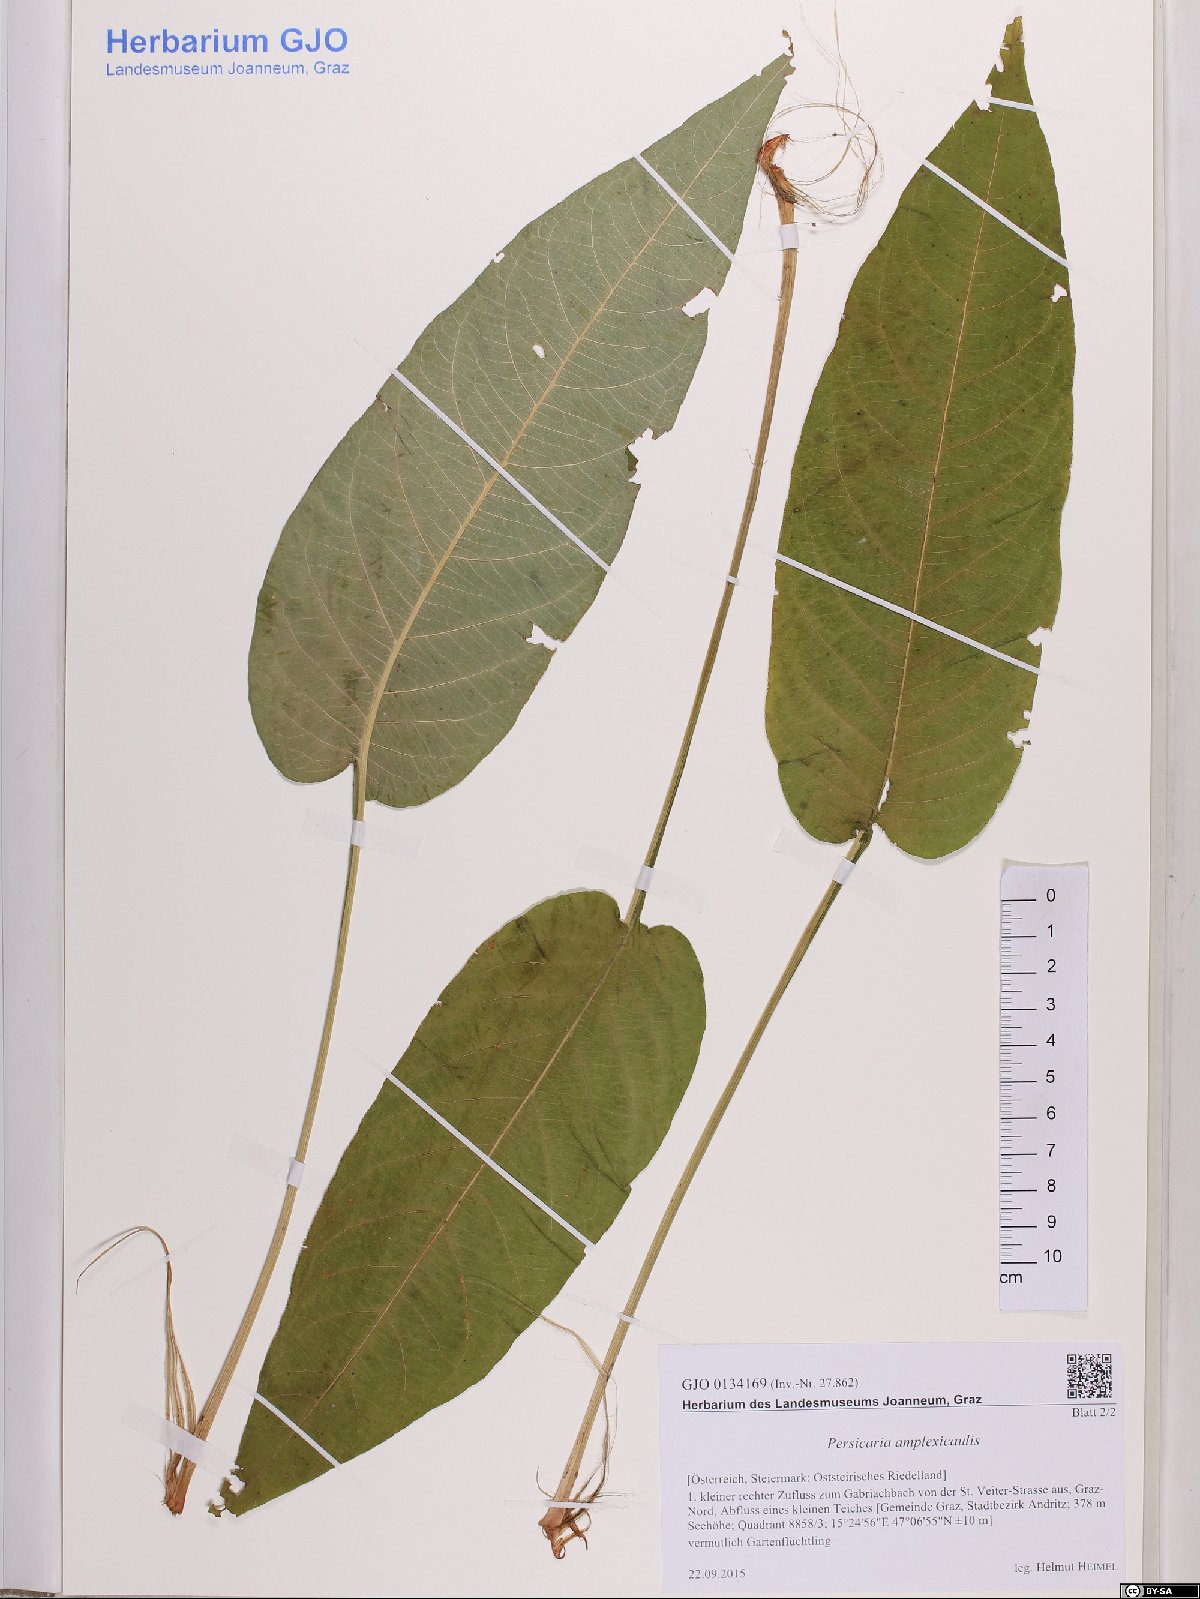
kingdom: Plantae
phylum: Tracheophyta
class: Magnoliopsida
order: Caryophyllales
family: Polygonaceae
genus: Bistorta
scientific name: Bistorta amplexicaulis
